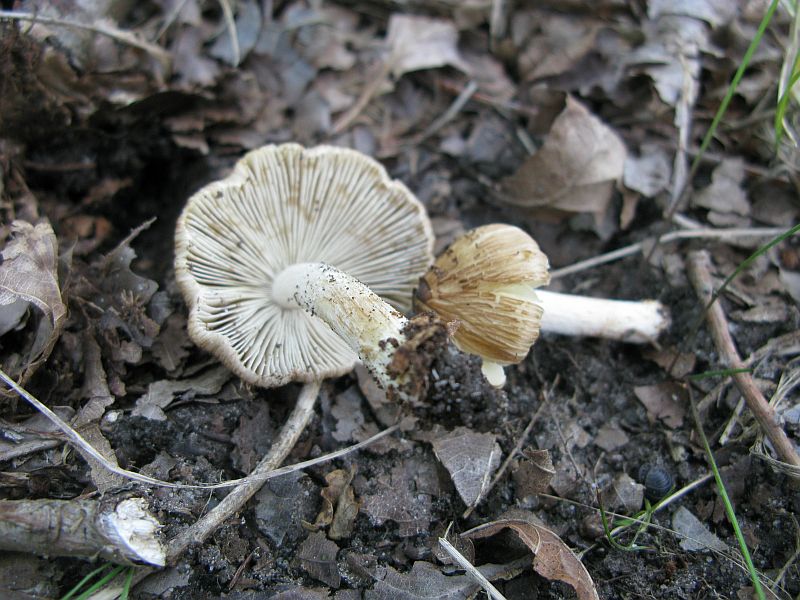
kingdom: Fungi
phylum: Basidiomycota
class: Agaricomycetes
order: Agaricales
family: Inocybaceae
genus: Pseudosperma
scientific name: Pseudosperma rimosum
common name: gulbladet trævlhat
